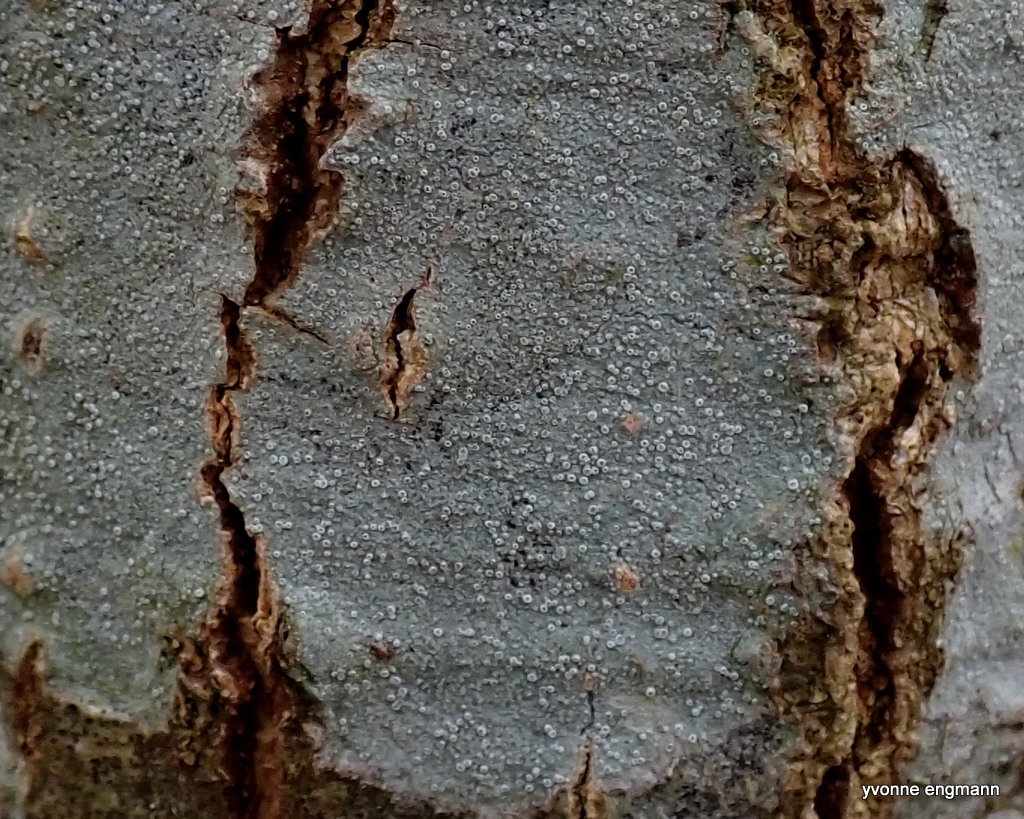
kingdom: Fungi
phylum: Ascomycota
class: Lecanoromycetes
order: Lecanorales
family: Lecanoraceae
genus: Lecanora
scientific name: Lecanora
